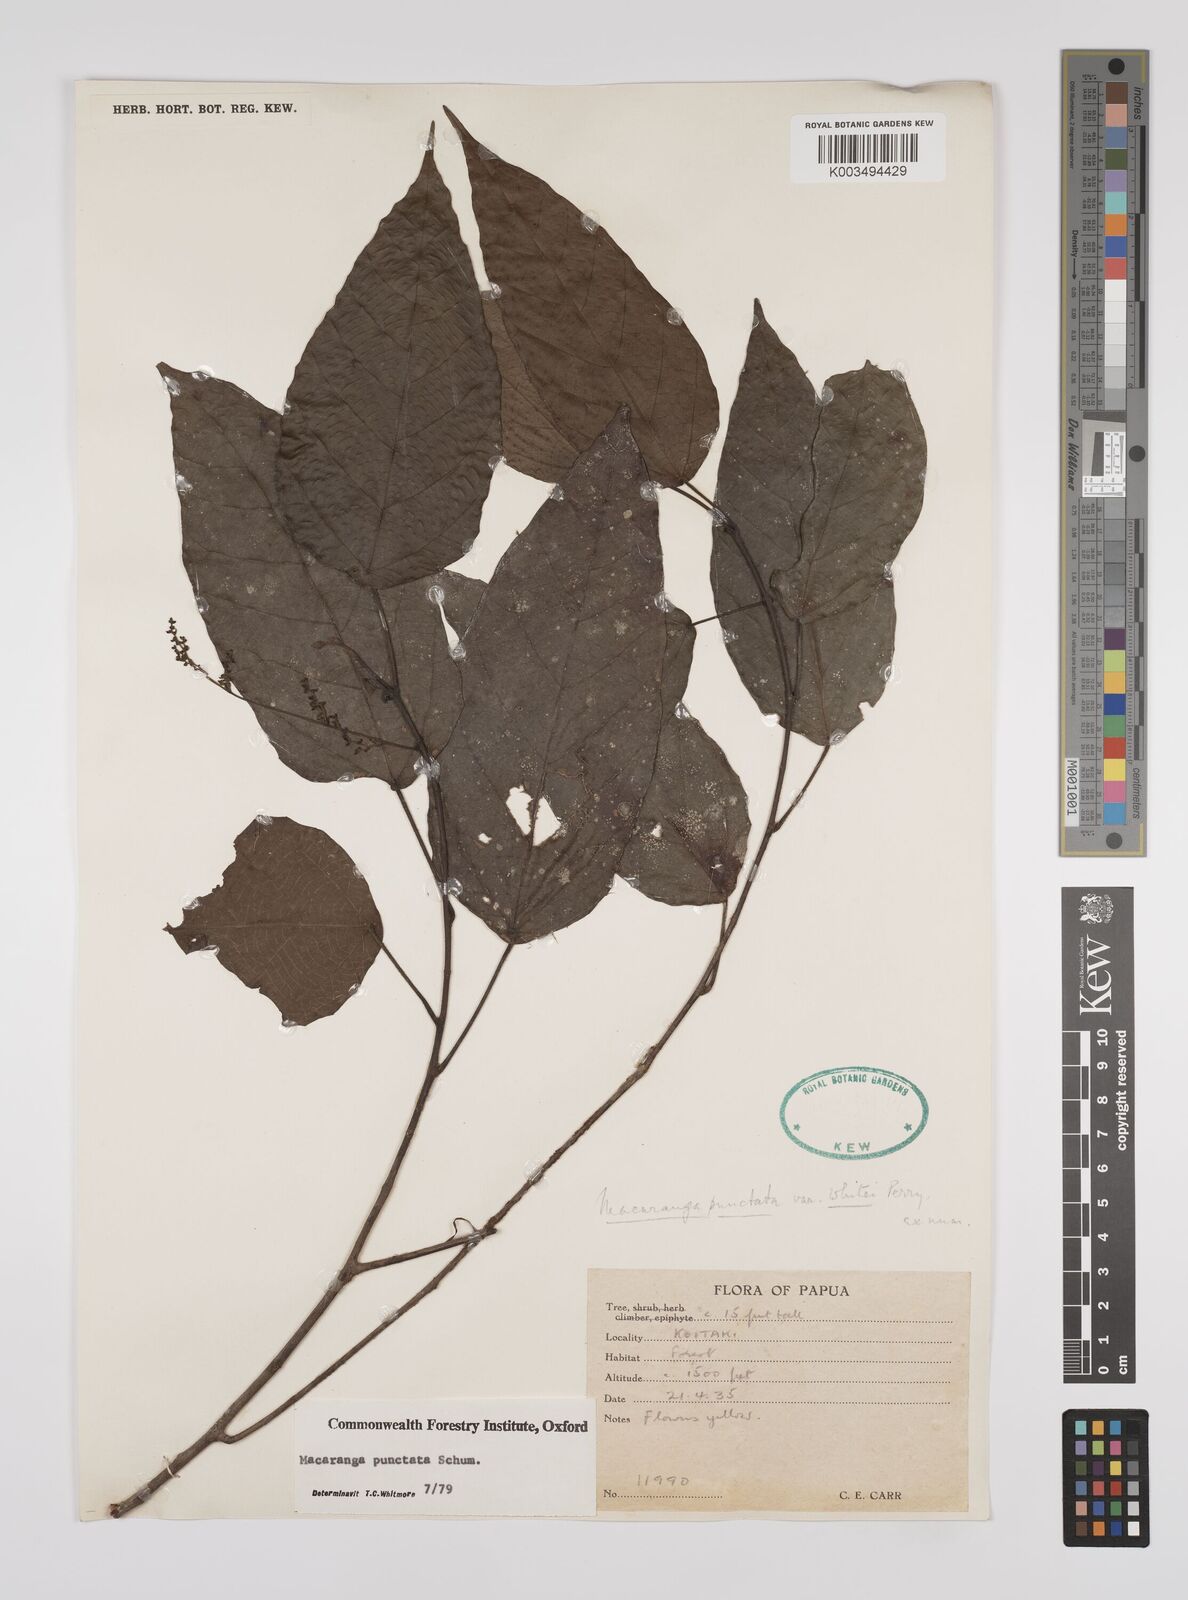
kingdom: Plantae
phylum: Tracheophyta
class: Magnoliopsida
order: Malpighiales
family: Euphorbiaceae
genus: Macaranga
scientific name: Macaranga punctata
